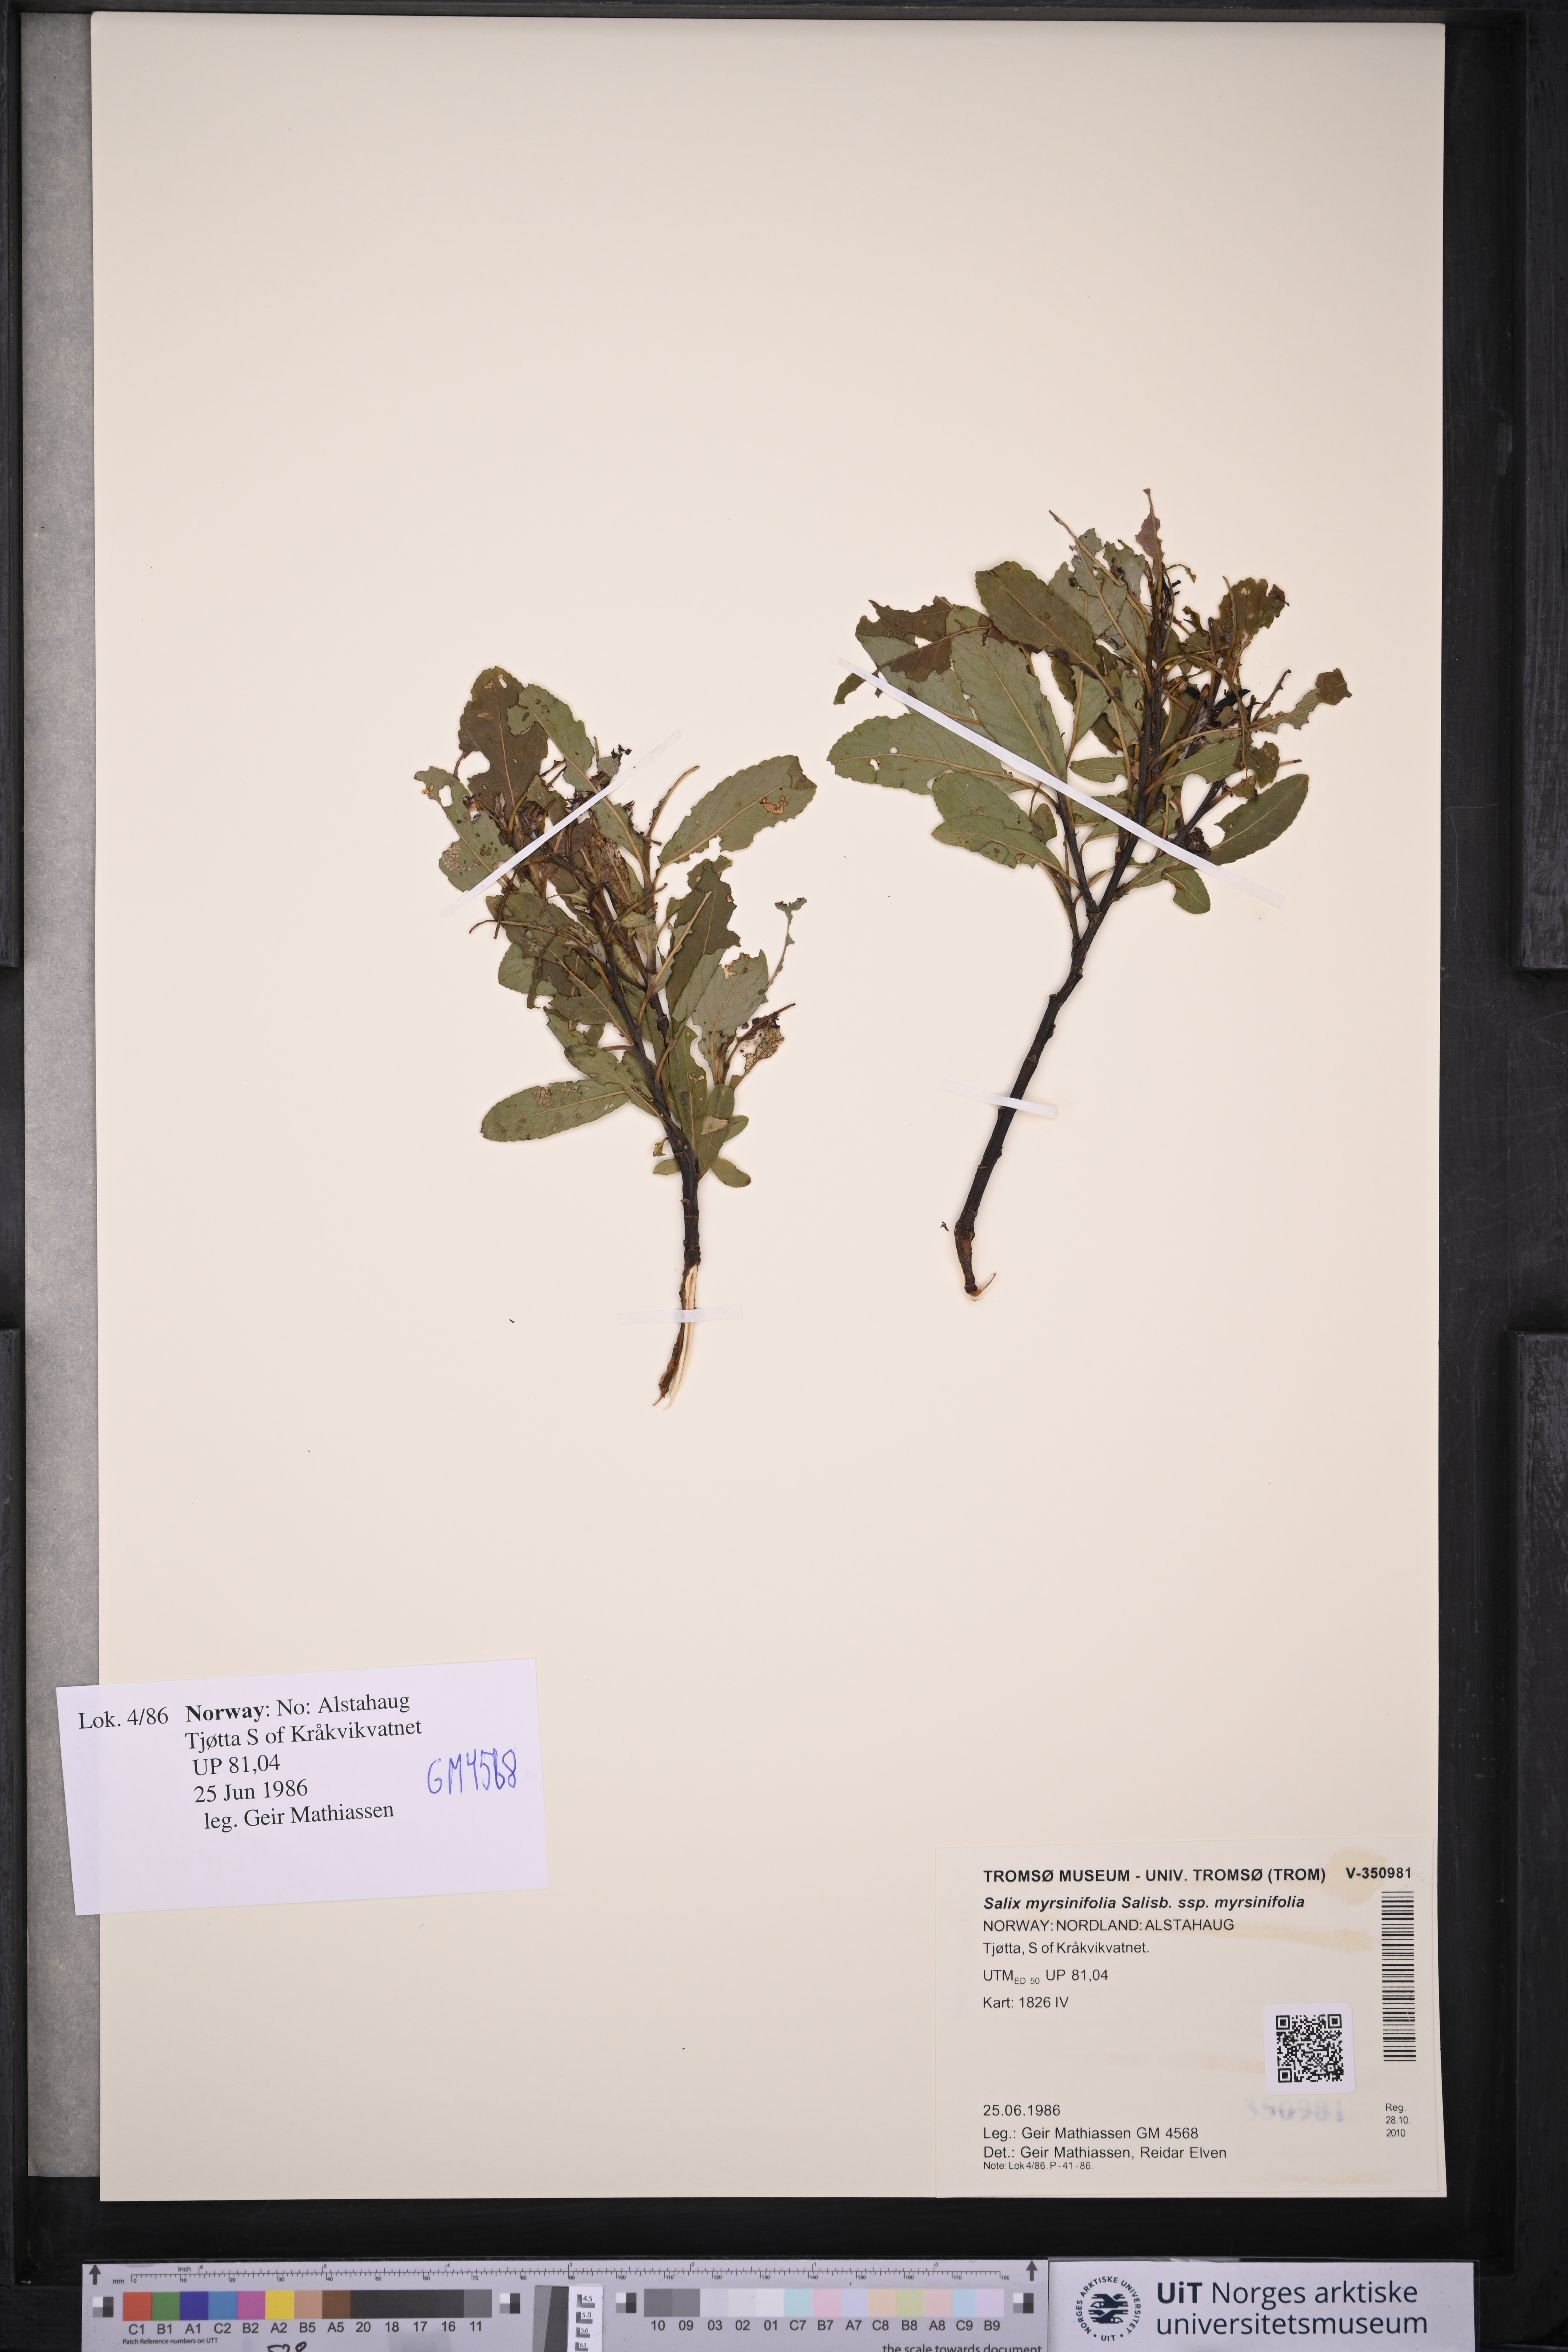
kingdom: Plantae
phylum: Tracheophyta
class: Magnoliopsida
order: Malpighiales
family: Salicaceae
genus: Salix
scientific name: Salix myrsinifolia
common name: Dark-leaved willow
